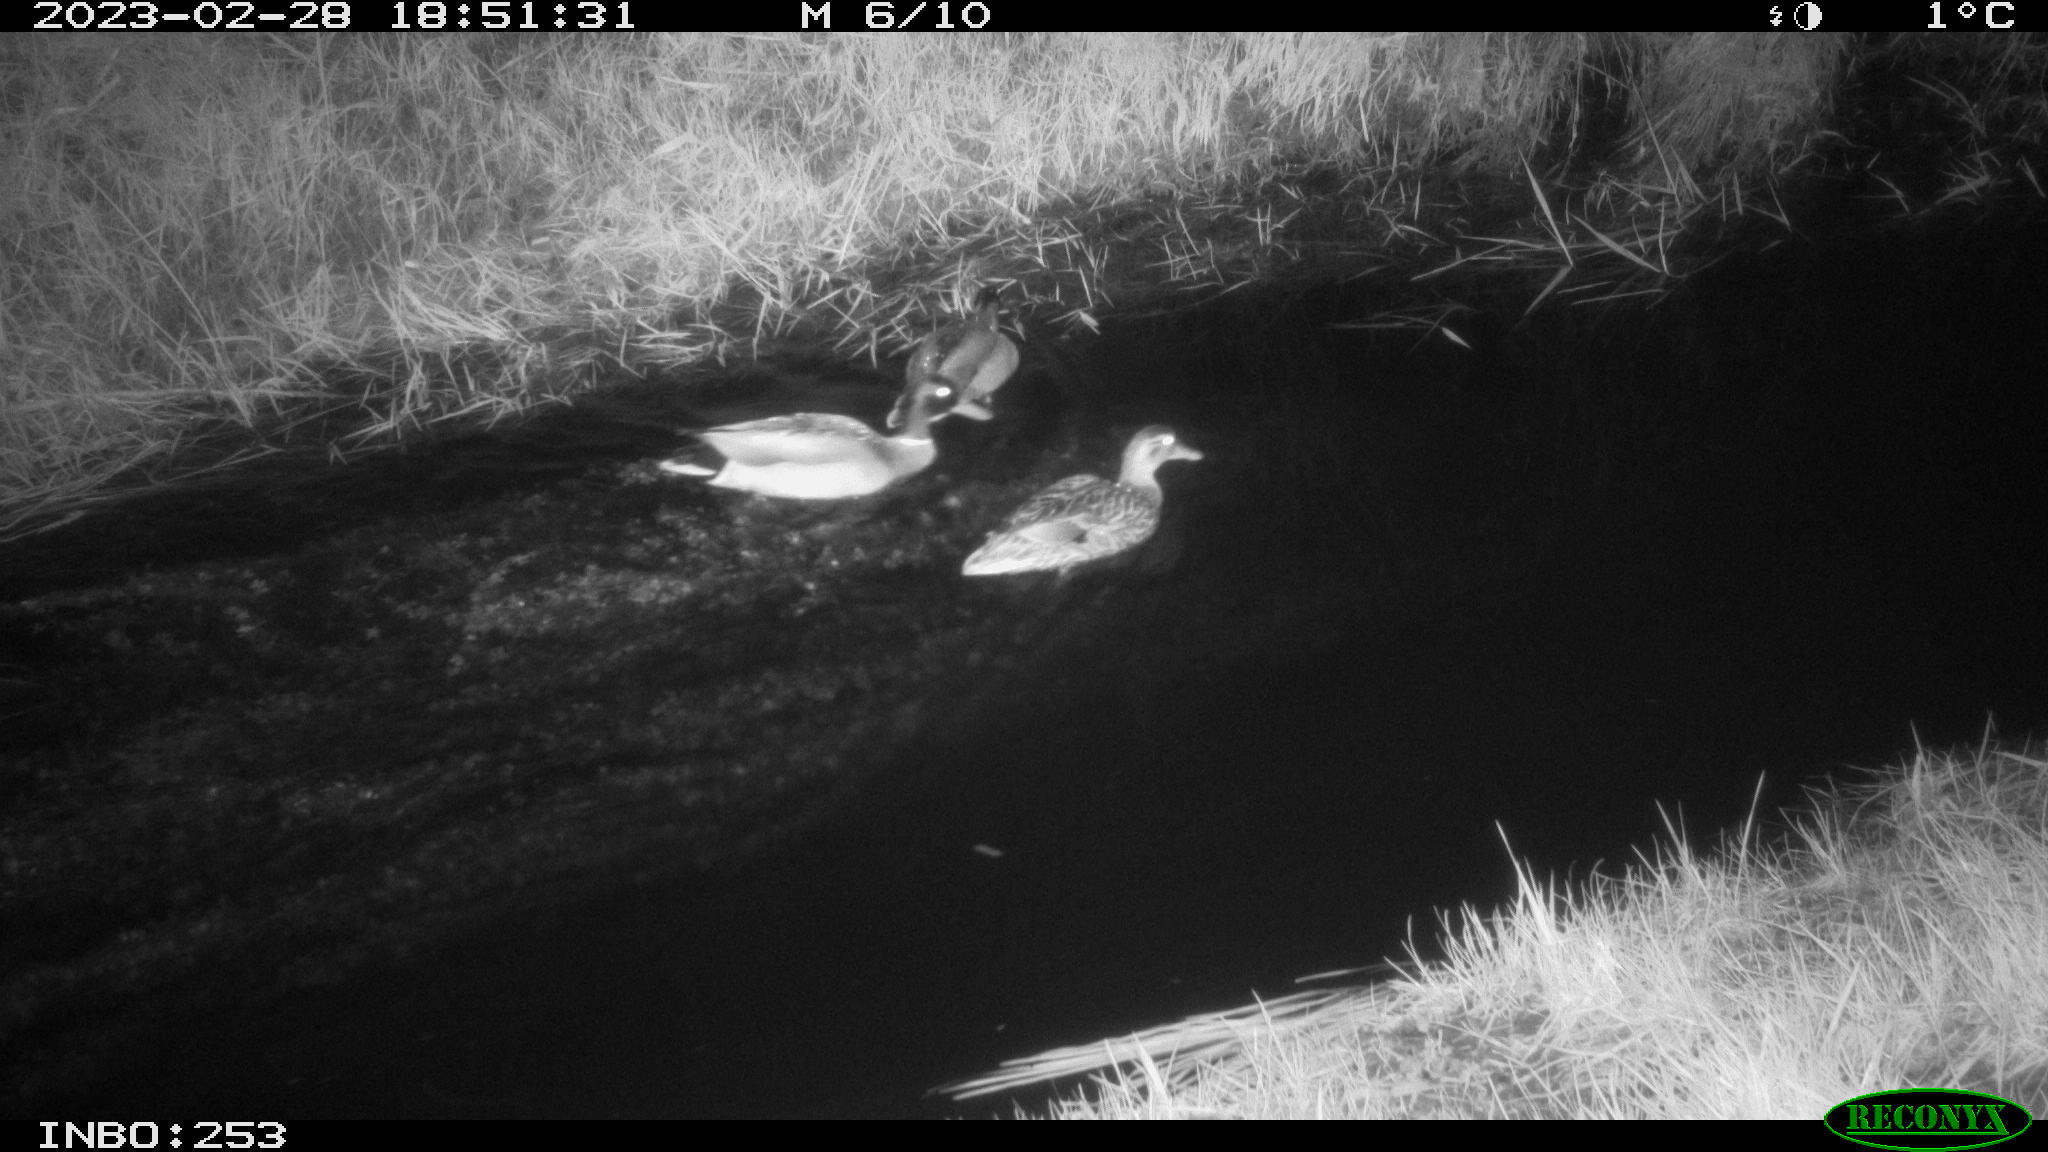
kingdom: Animalia
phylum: Chordata
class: Aves
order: Anseriformes
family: Anatidae
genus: Anas
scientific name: Anas
